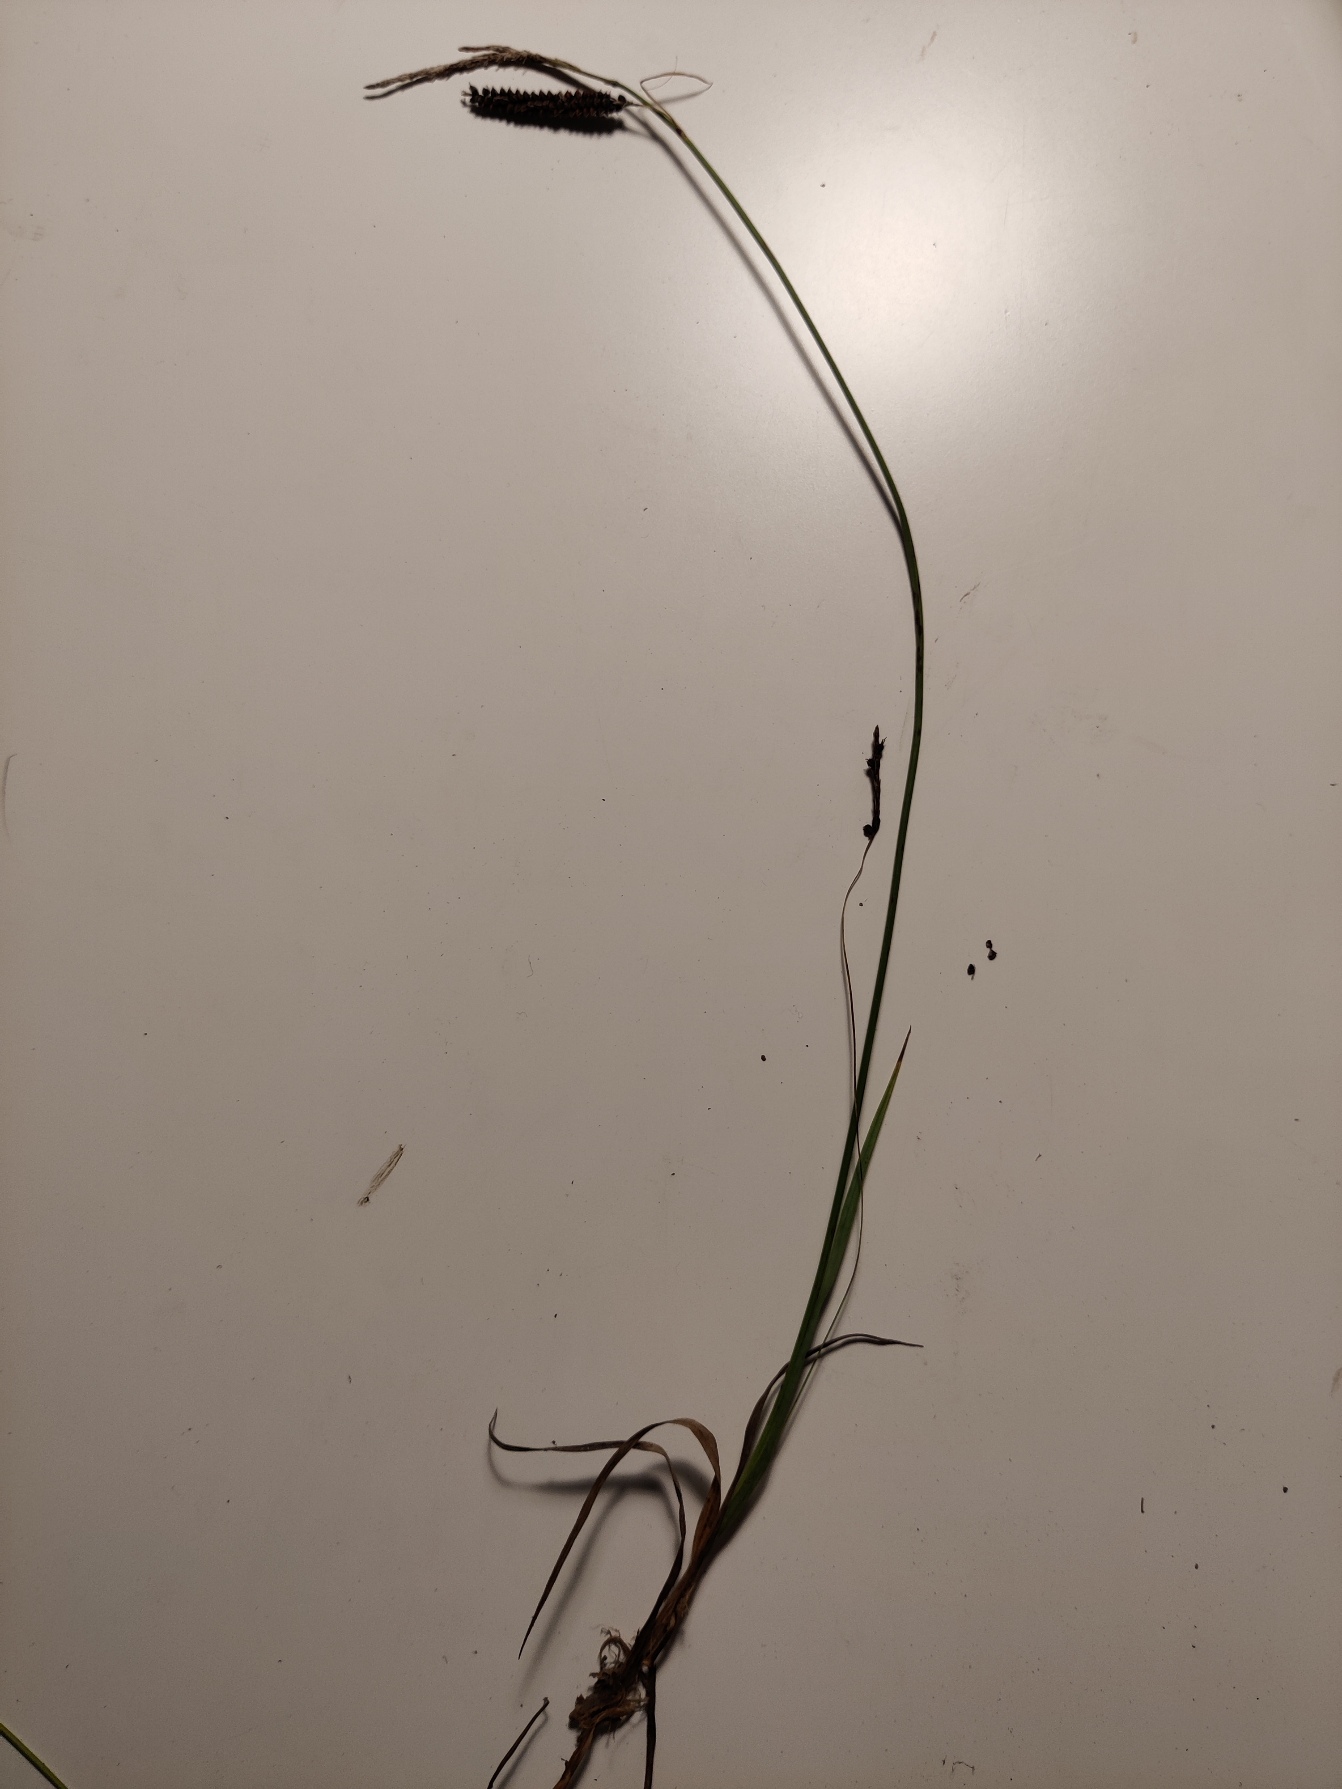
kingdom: Plantae
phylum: Tracheophyta
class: Liliopsida
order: Poales
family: Cyperaceae
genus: Carex
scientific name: Carex flacca
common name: Blågrøn star
